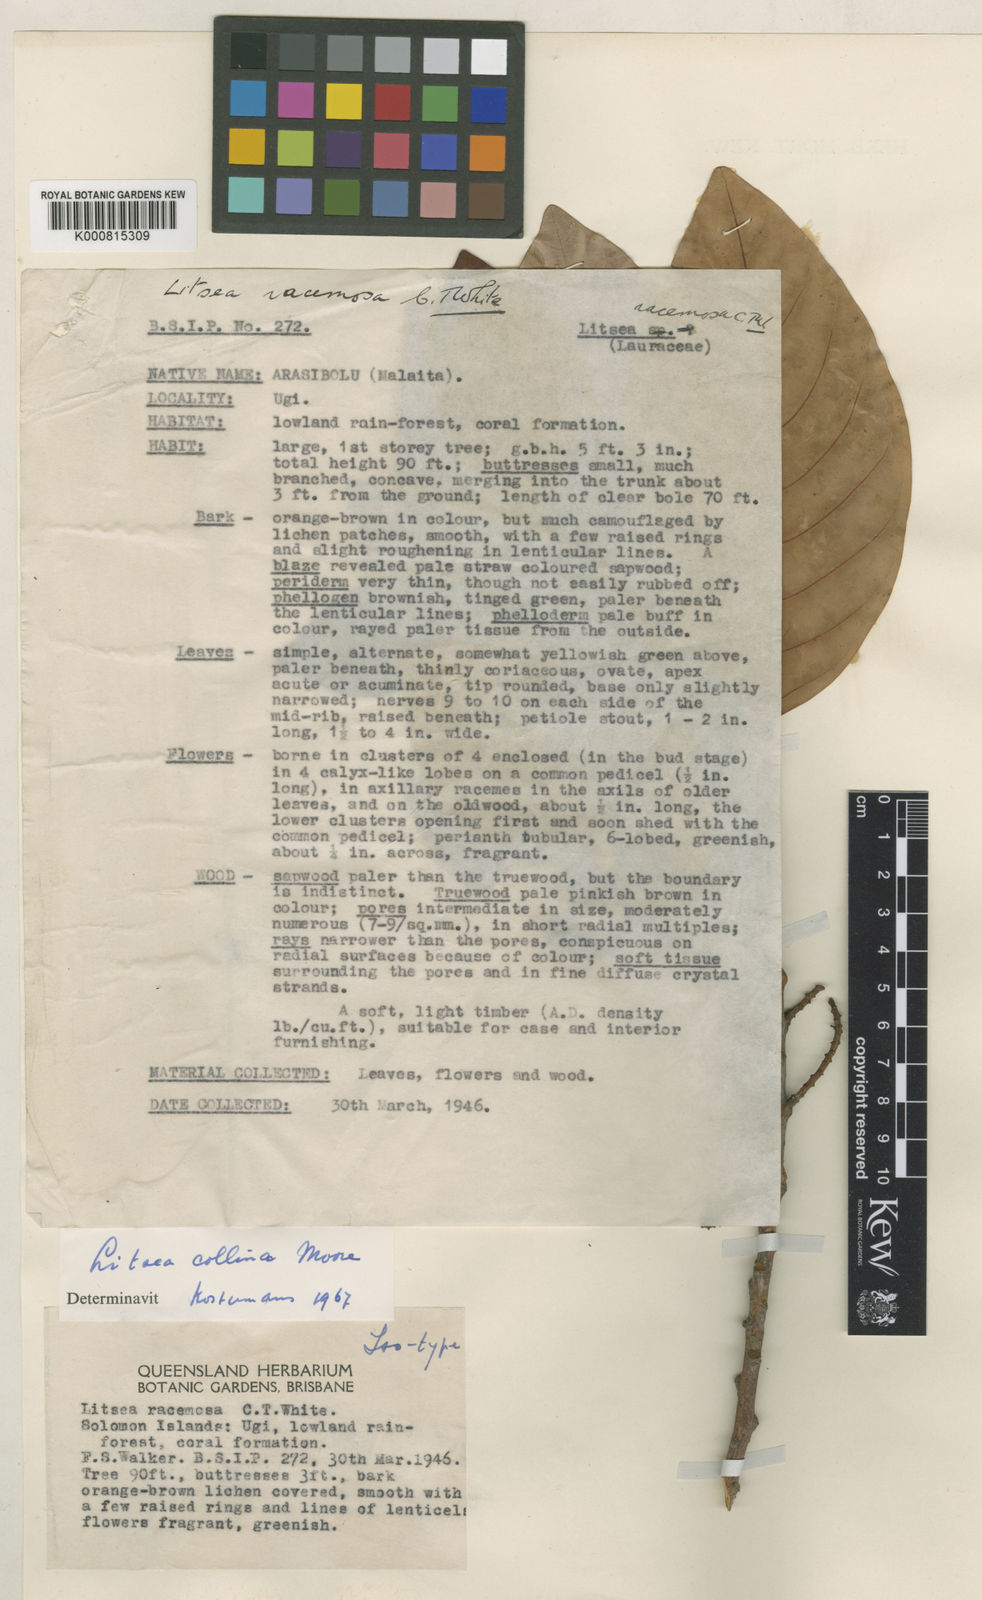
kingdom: Plantae
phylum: Tracheophyta
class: Magnoliopsida
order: Laurales
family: Lauraceae
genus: Litsea
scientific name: Litsea collina
